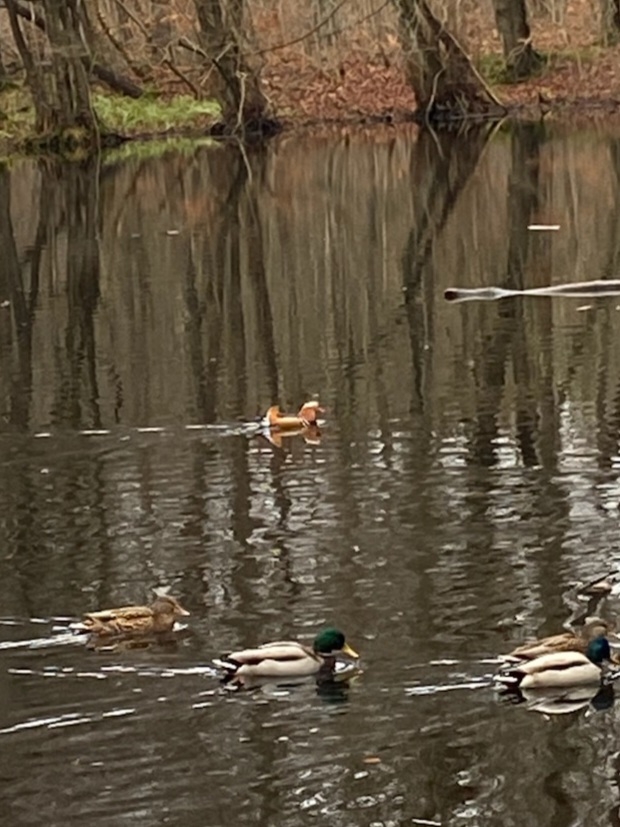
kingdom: Animalia
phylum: Chordata
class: Aves
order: Anseriformes
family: Anatidae
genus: Aix
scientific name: Aix galericulata
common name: Mandarinand
